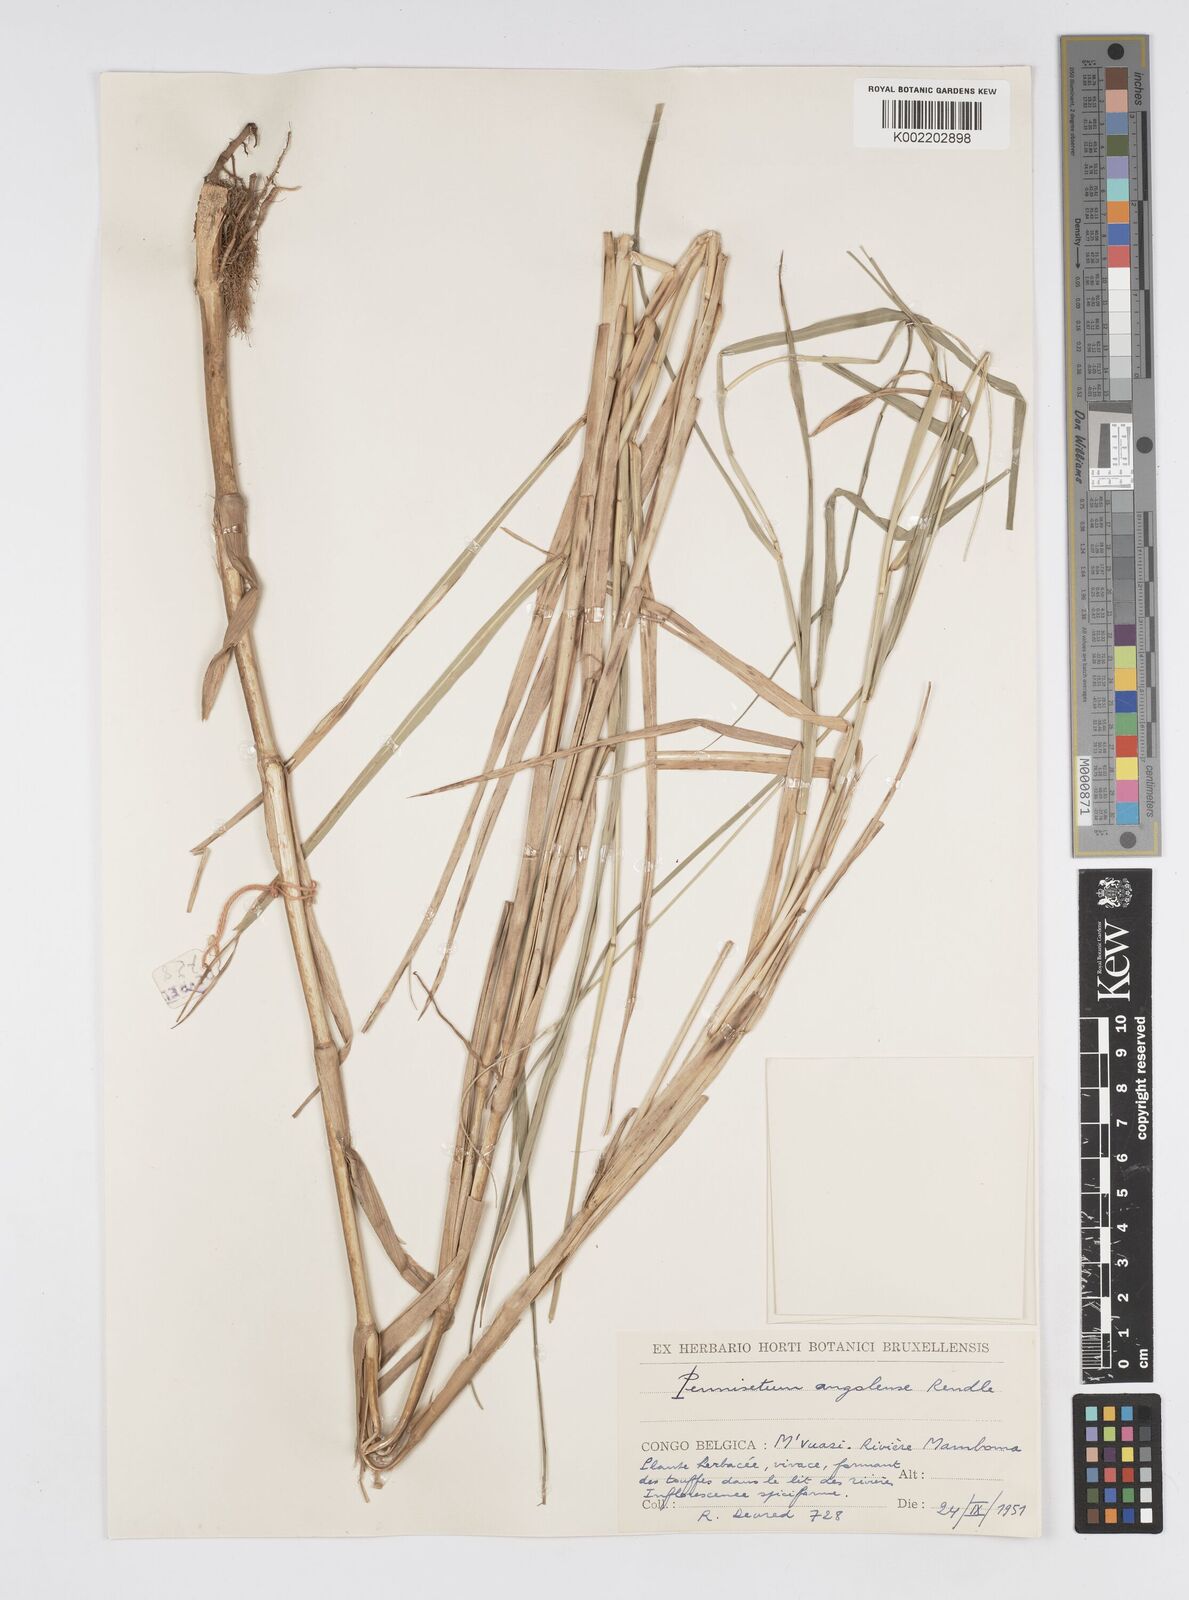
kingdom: Plantae
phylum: Tracheophyta
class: Liliopsida
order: Poales
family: Poaceae
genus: Cenchrus
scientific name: Cenchrus caudatus
